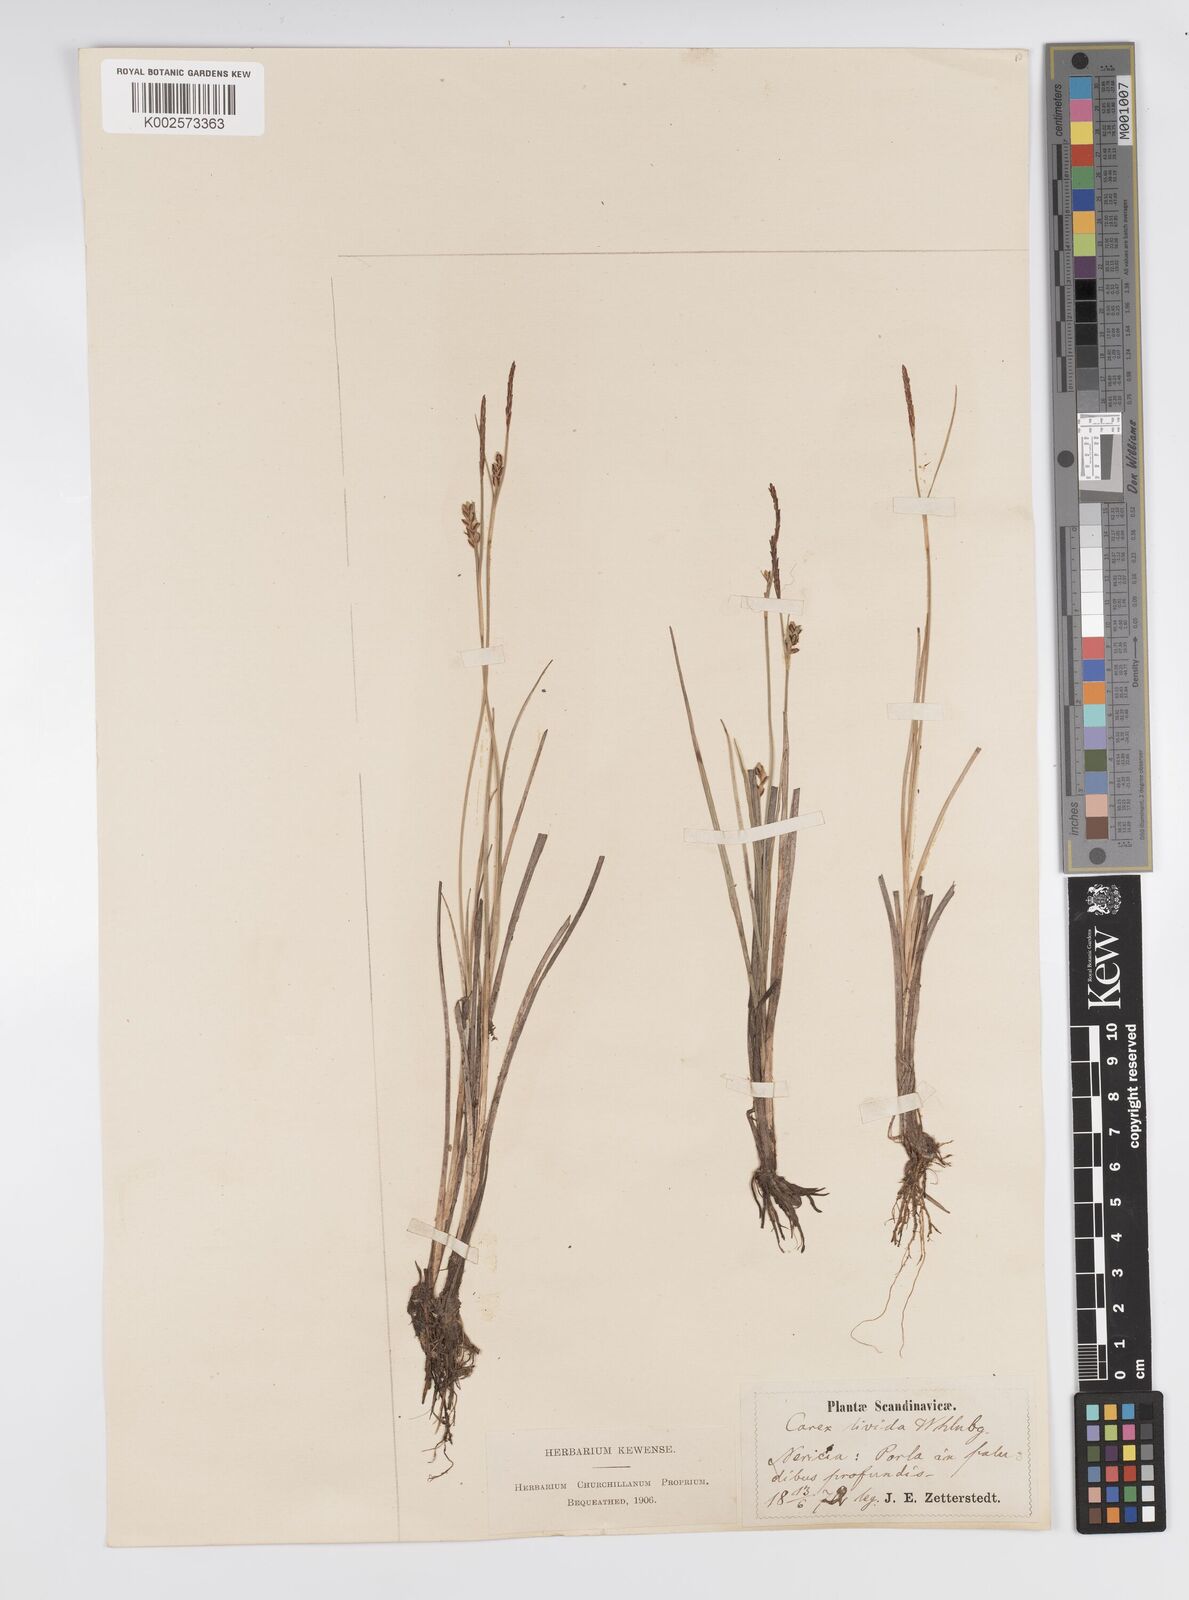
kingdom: Plantae
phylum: Tracheophyta
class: Liliopsida
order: Poales
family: Cyperaceae
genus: Carex
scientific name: Carex livida
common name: Livid sedge
